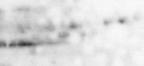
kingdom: Animalia
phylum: Chordata
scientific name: Chordata
